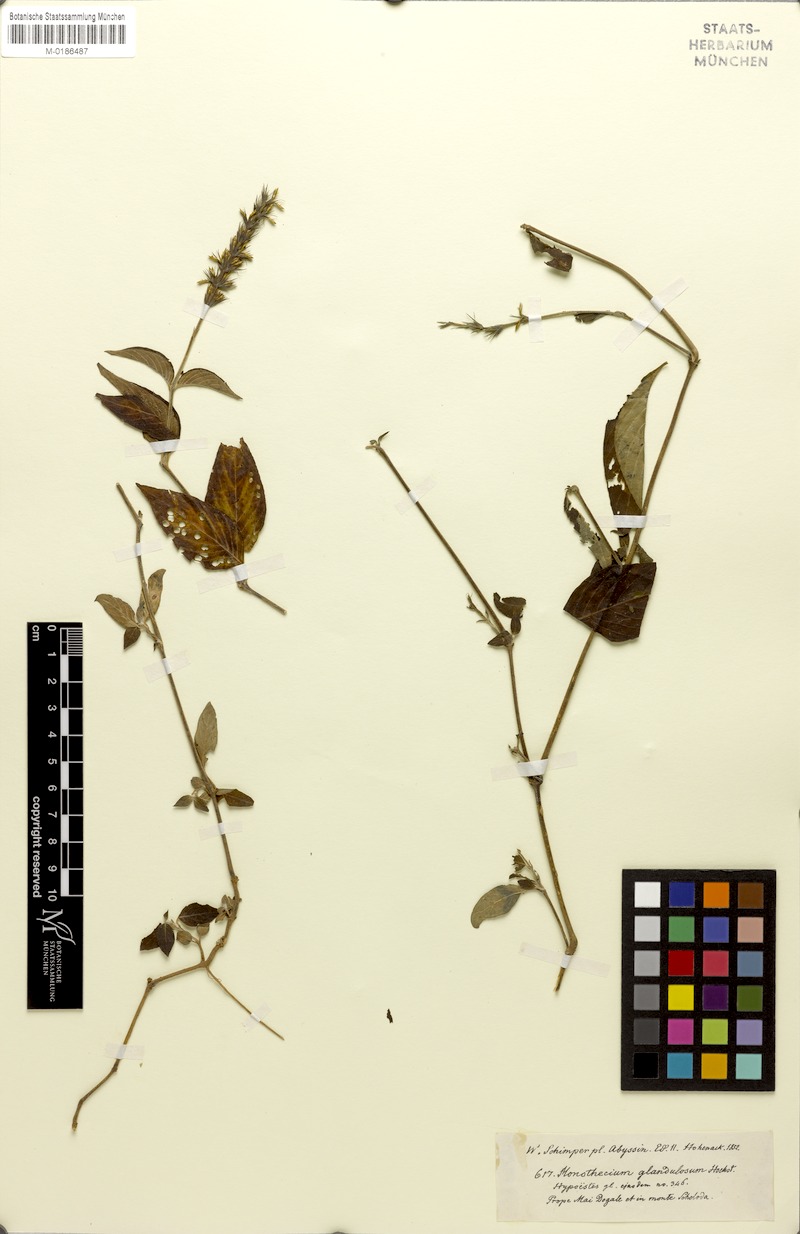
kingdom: Plantae
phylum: Tracheophyta
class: Magnoliopsida
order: Lamiales
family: Acanthaceae
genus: Hypoestes
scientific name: Hypoestes
